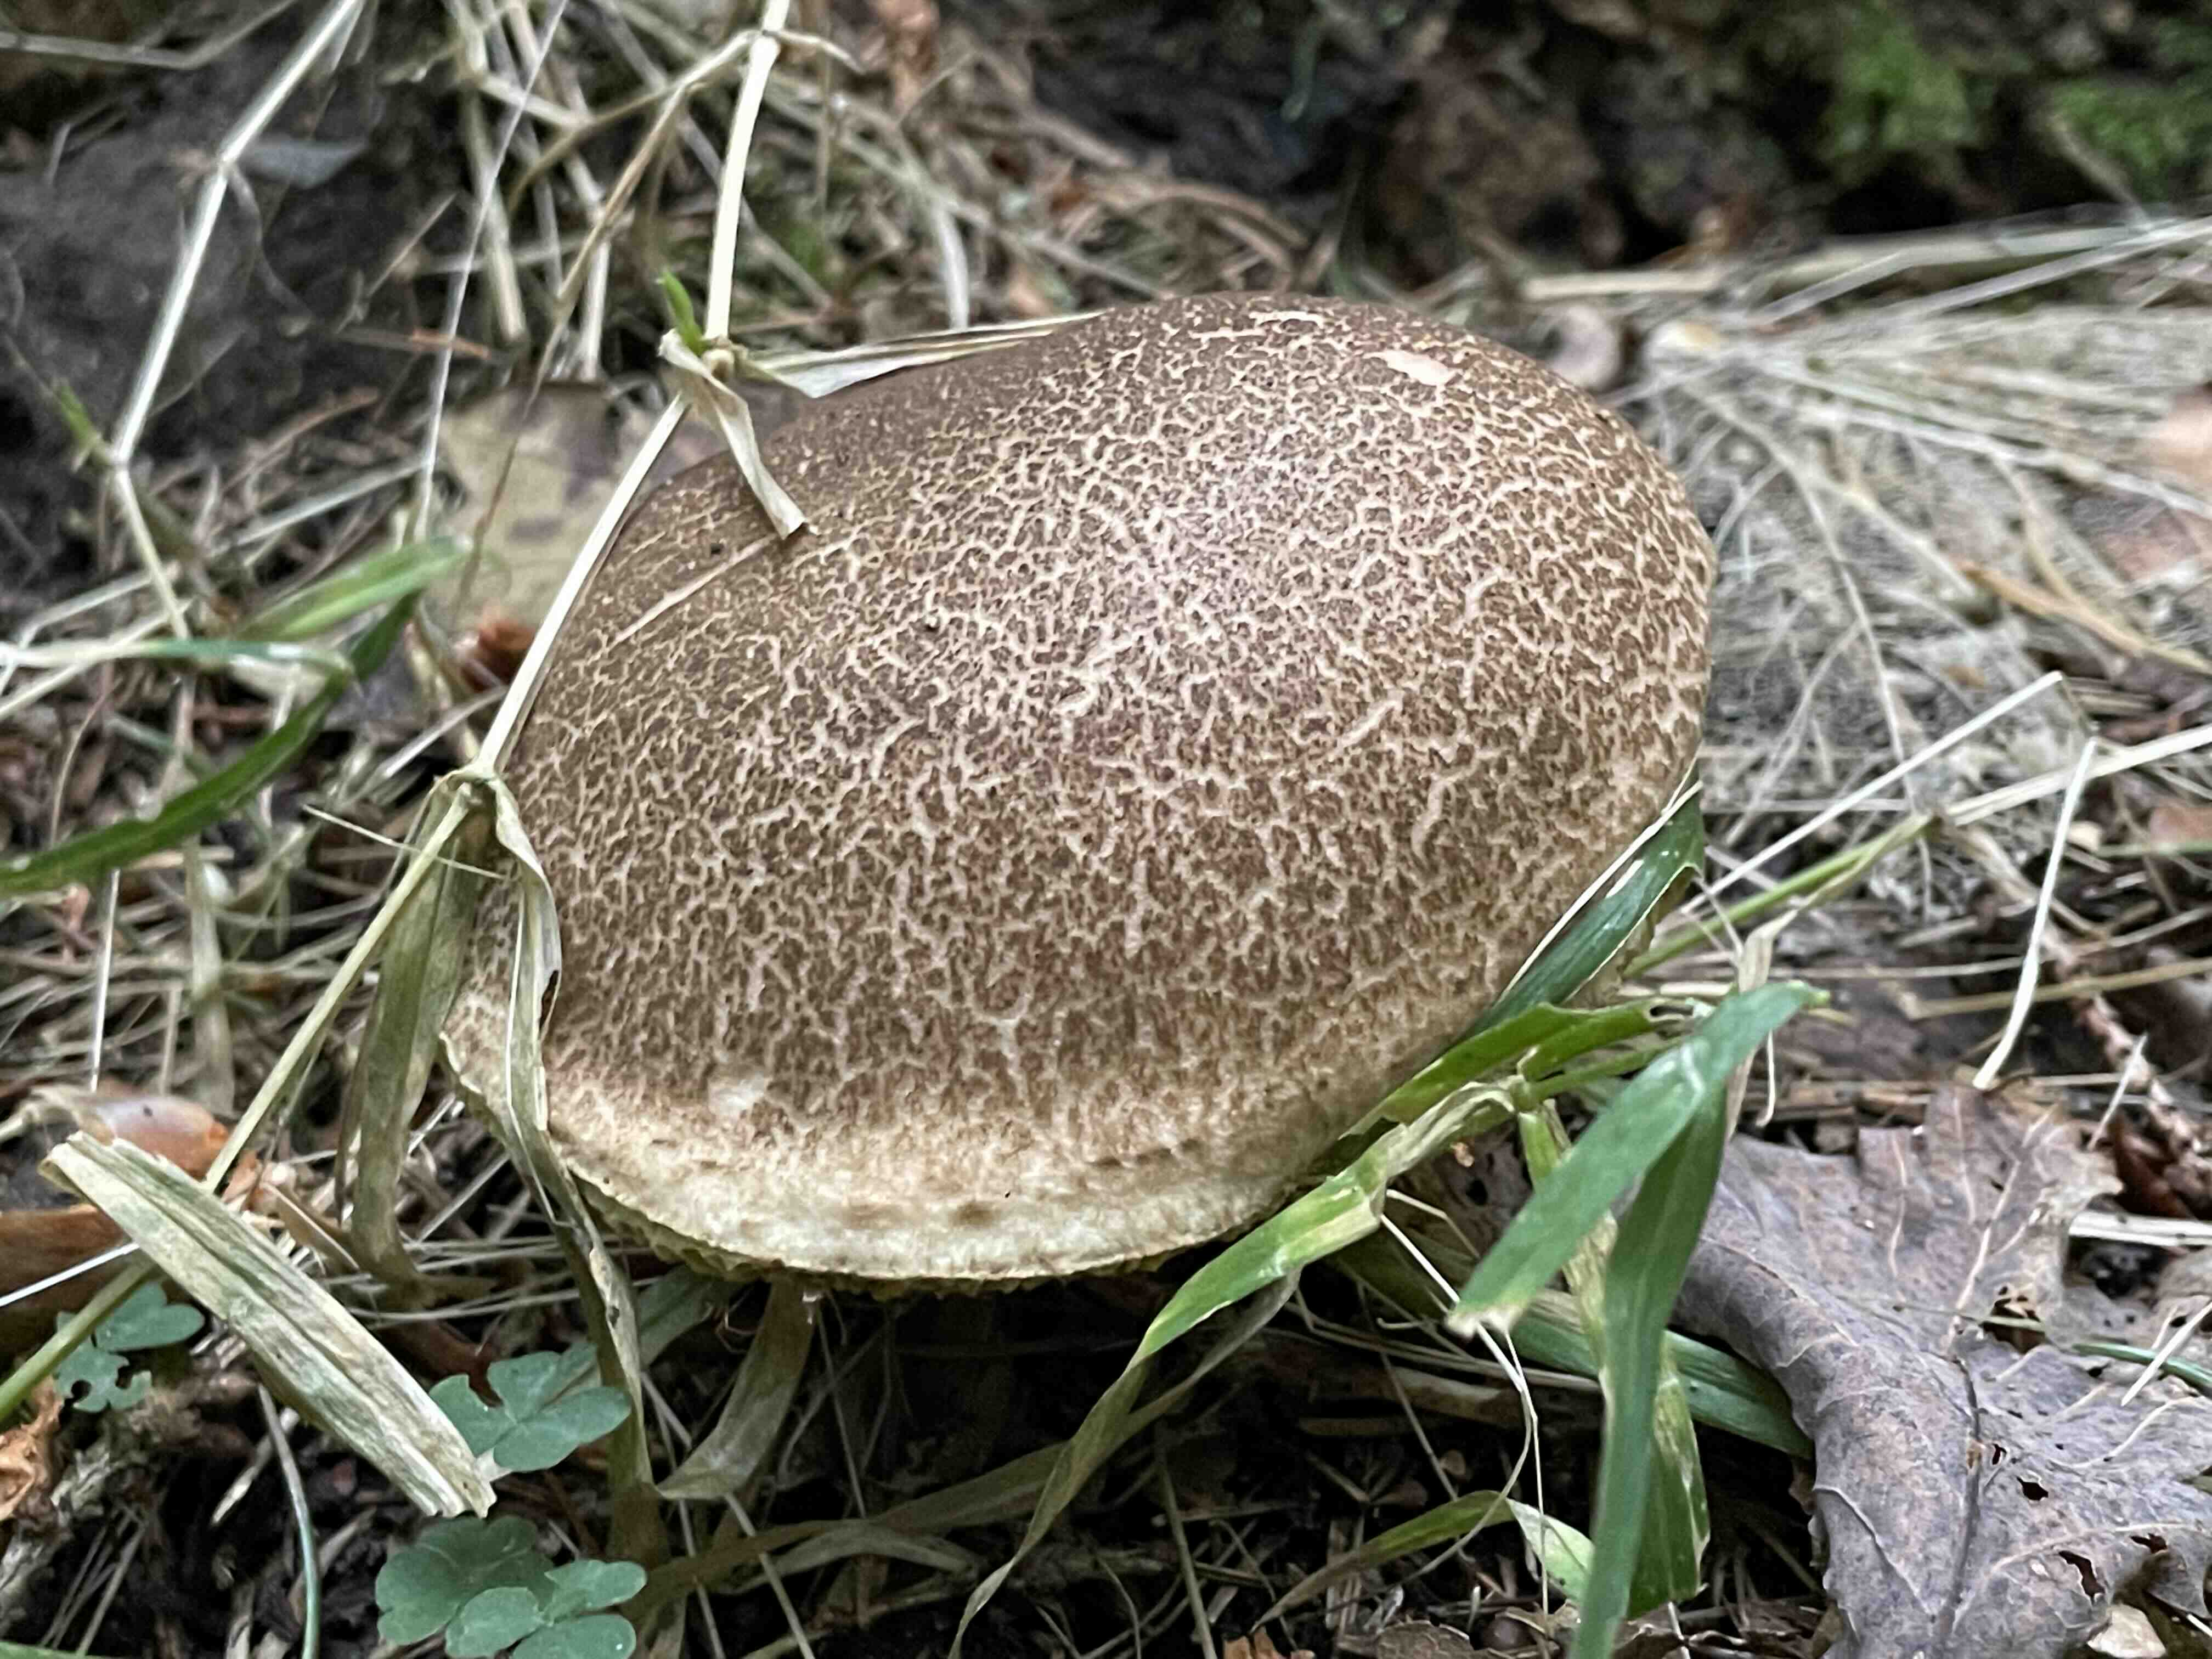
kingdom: Fungi
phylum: Basidiomycota
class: Agaricomycetes
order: Boletales
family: Boletaceae
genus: Xerocomellus
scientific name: Xerocomellus chrysenteron
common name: rødsprukken rørhat
